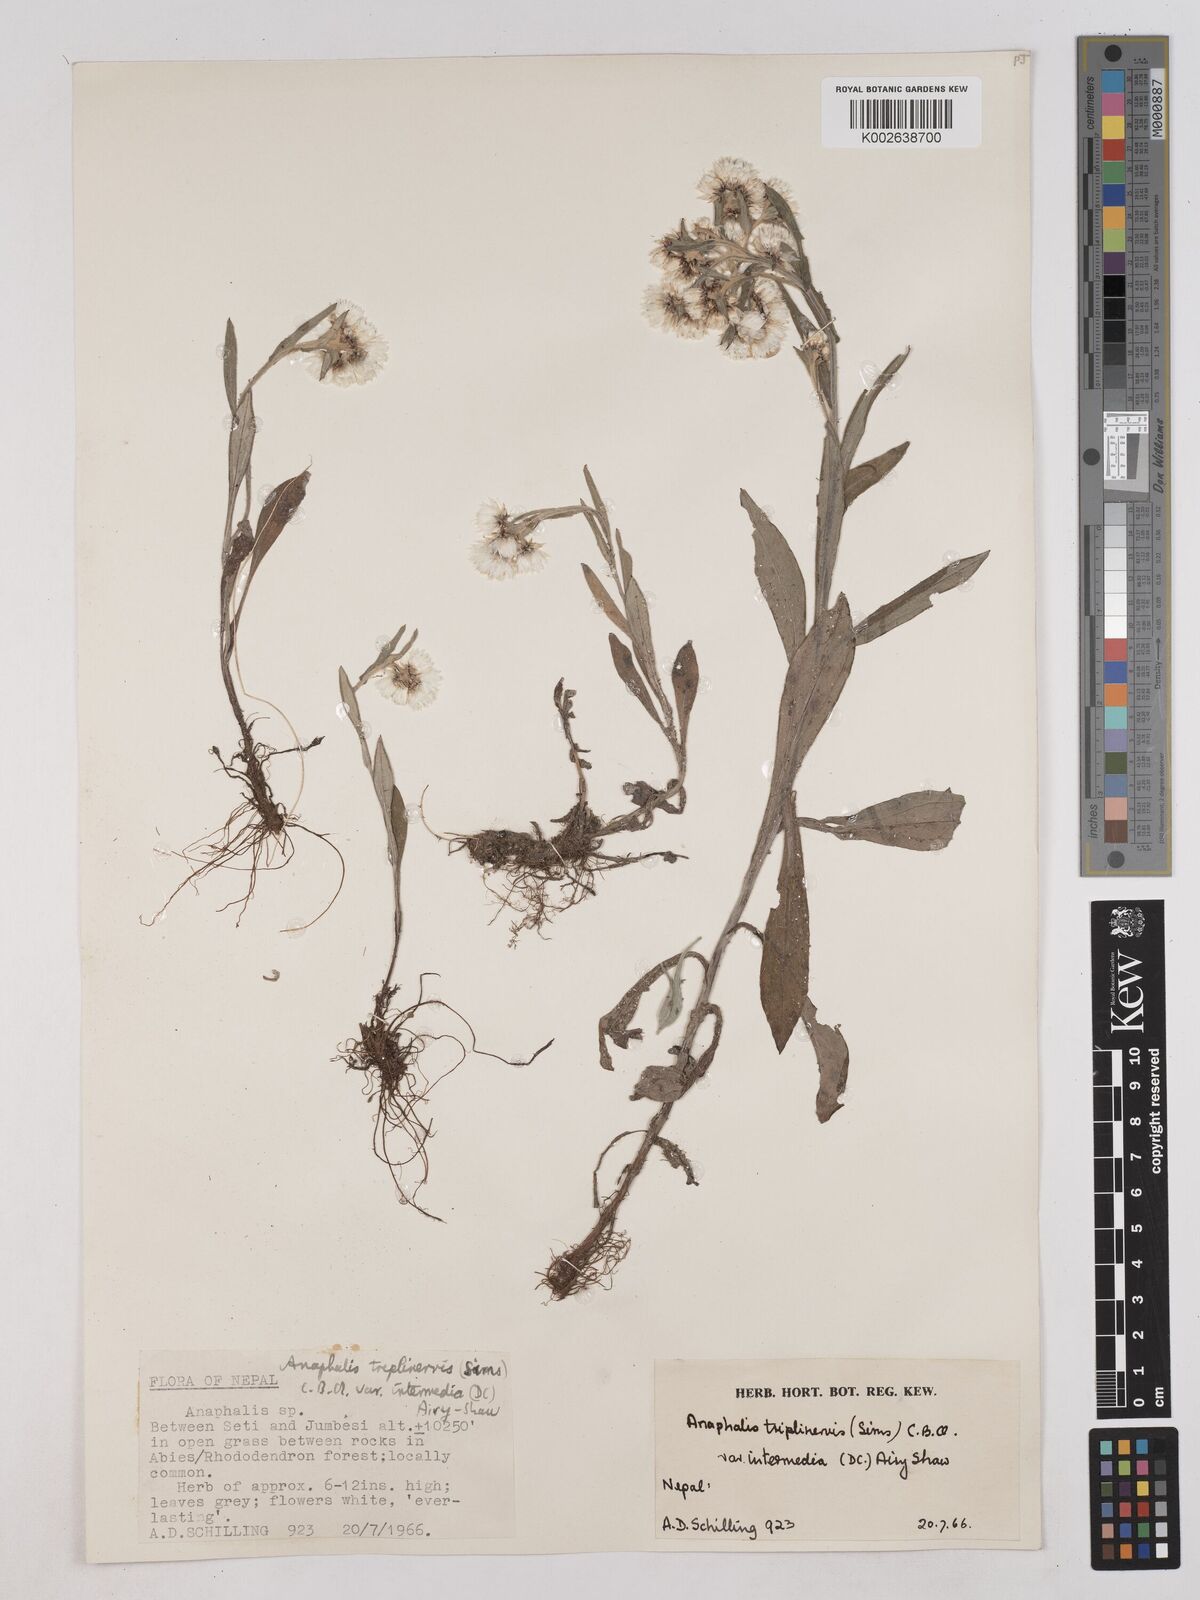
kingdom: Plantae
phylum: Tracheophyta
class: Magnoliopsida
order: Asterales
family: Asteraceae
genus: Anaphalis
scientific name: Anaphalis
